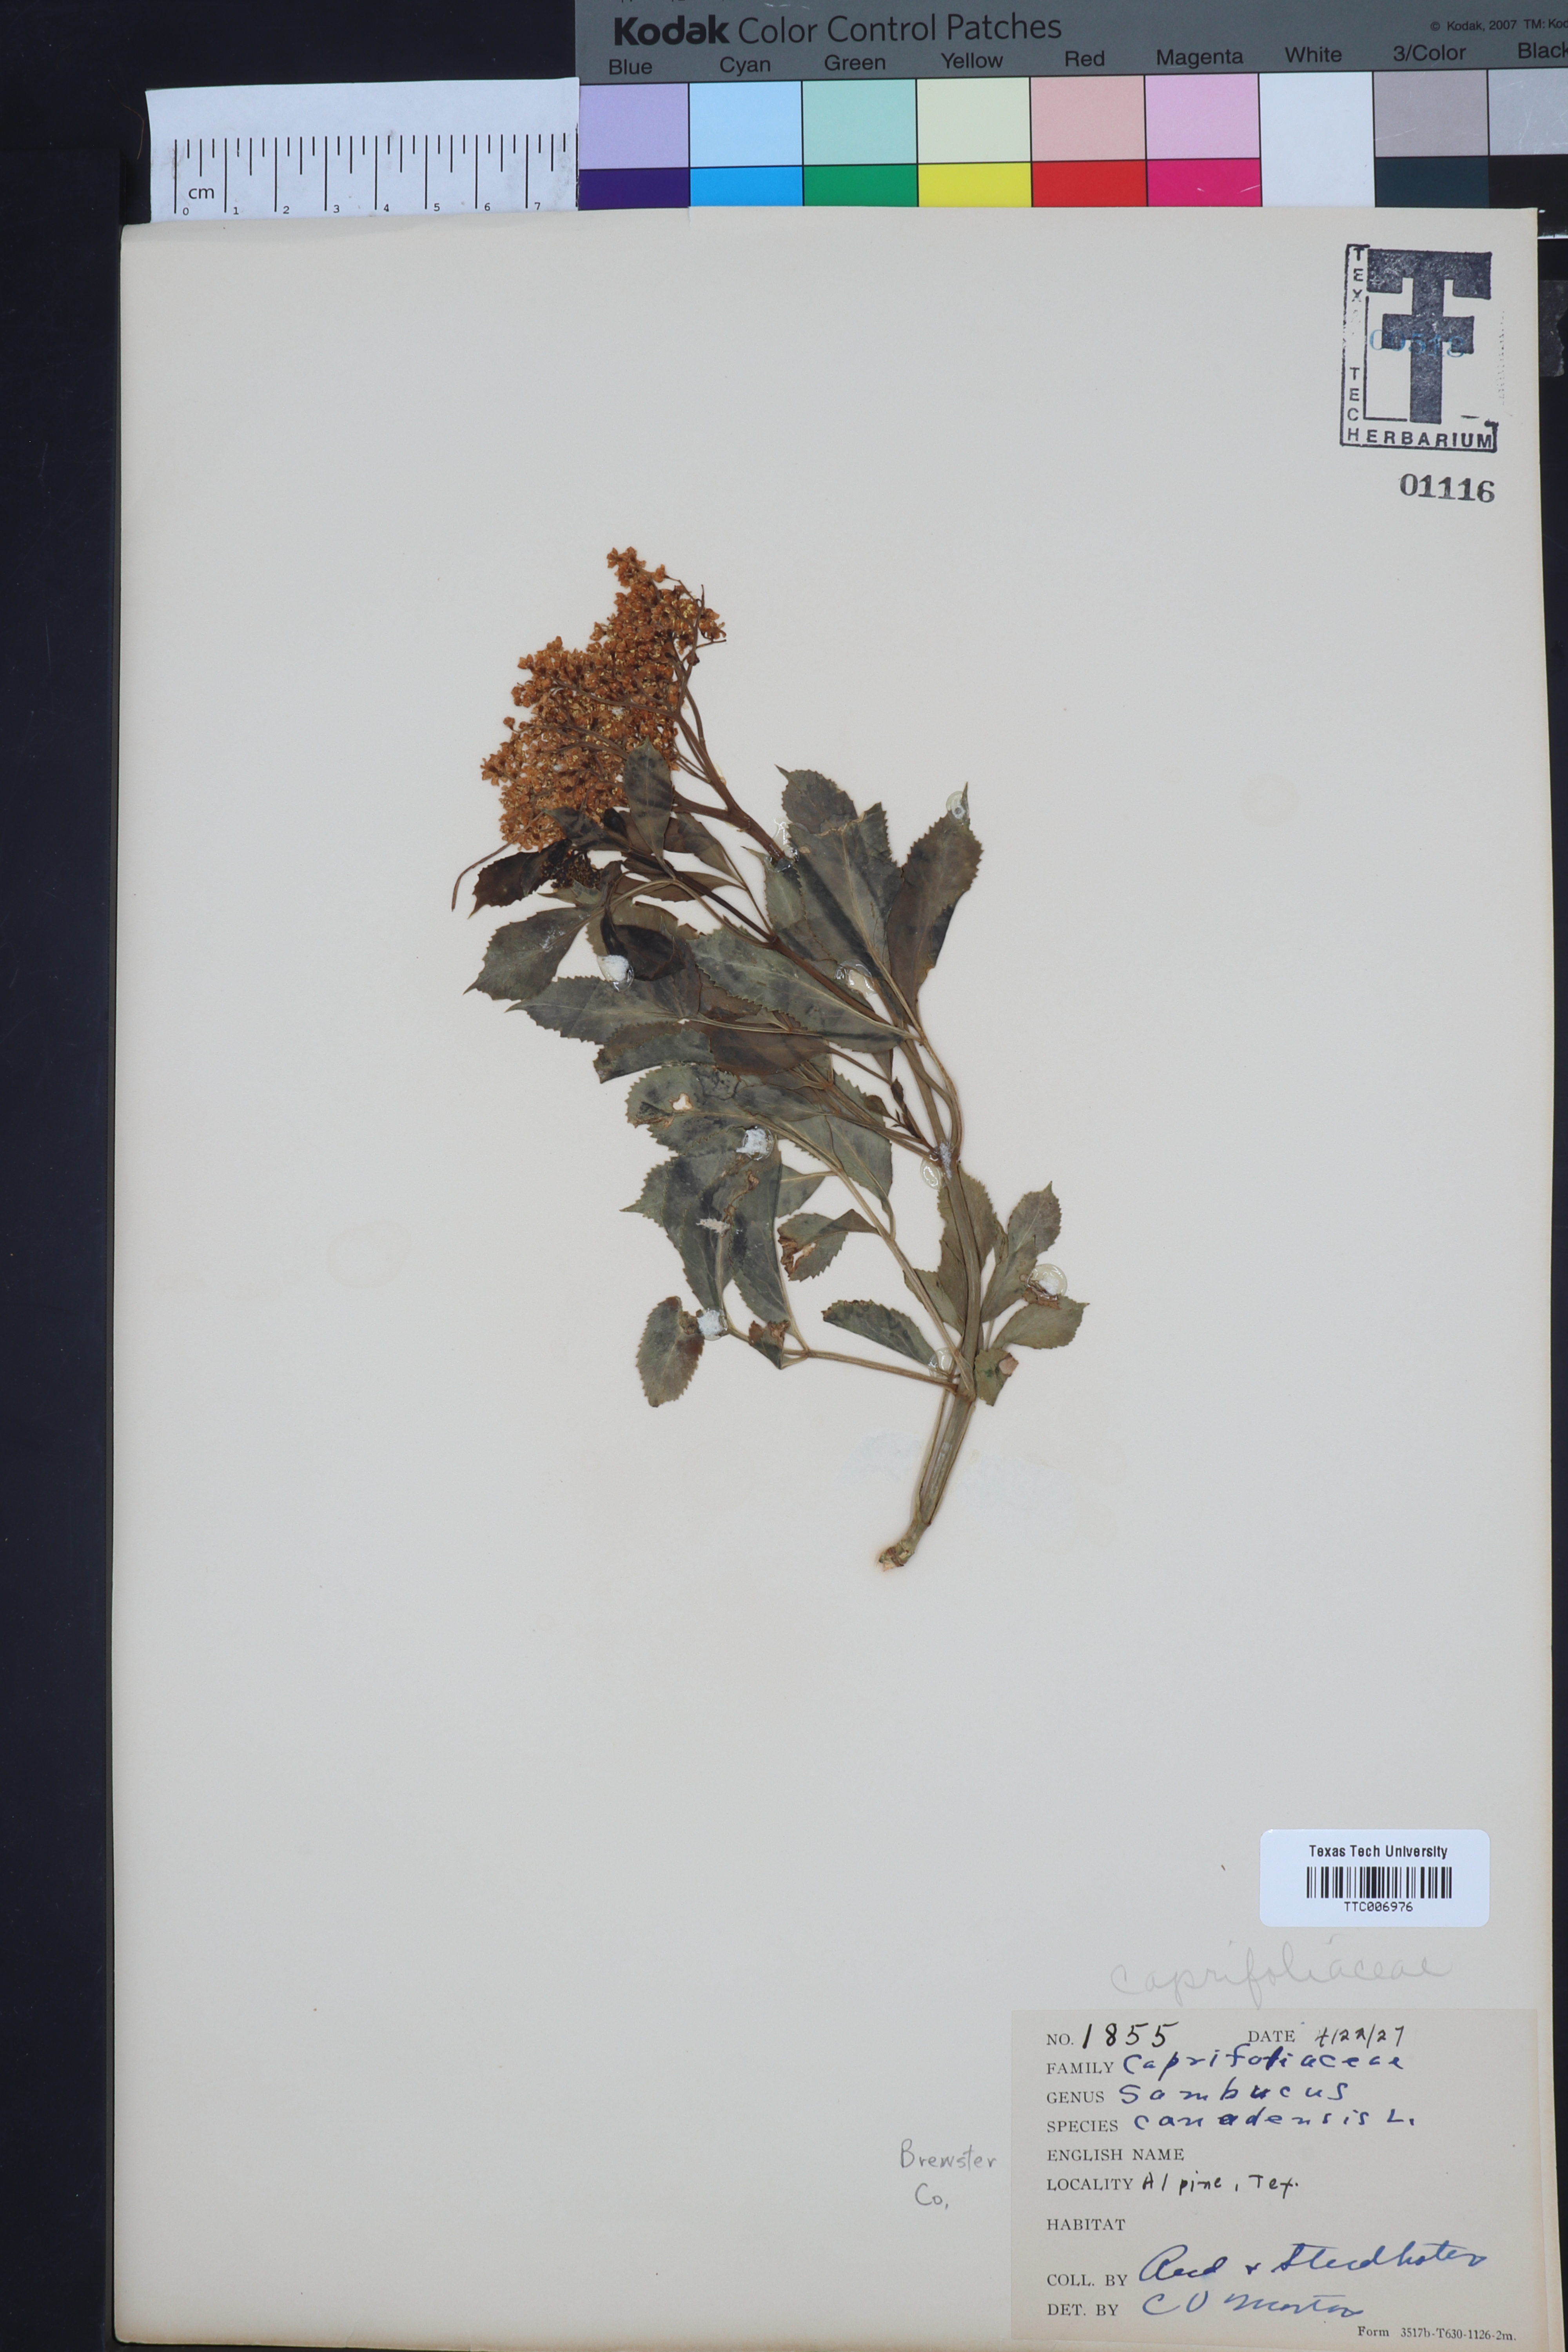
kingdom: Plantae
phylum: Tracheophyta
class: Magnoliopsida
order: Dipsacales
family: Viburnaceae
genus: Sambucus
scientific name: Sambucus canadensis
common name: American elder
